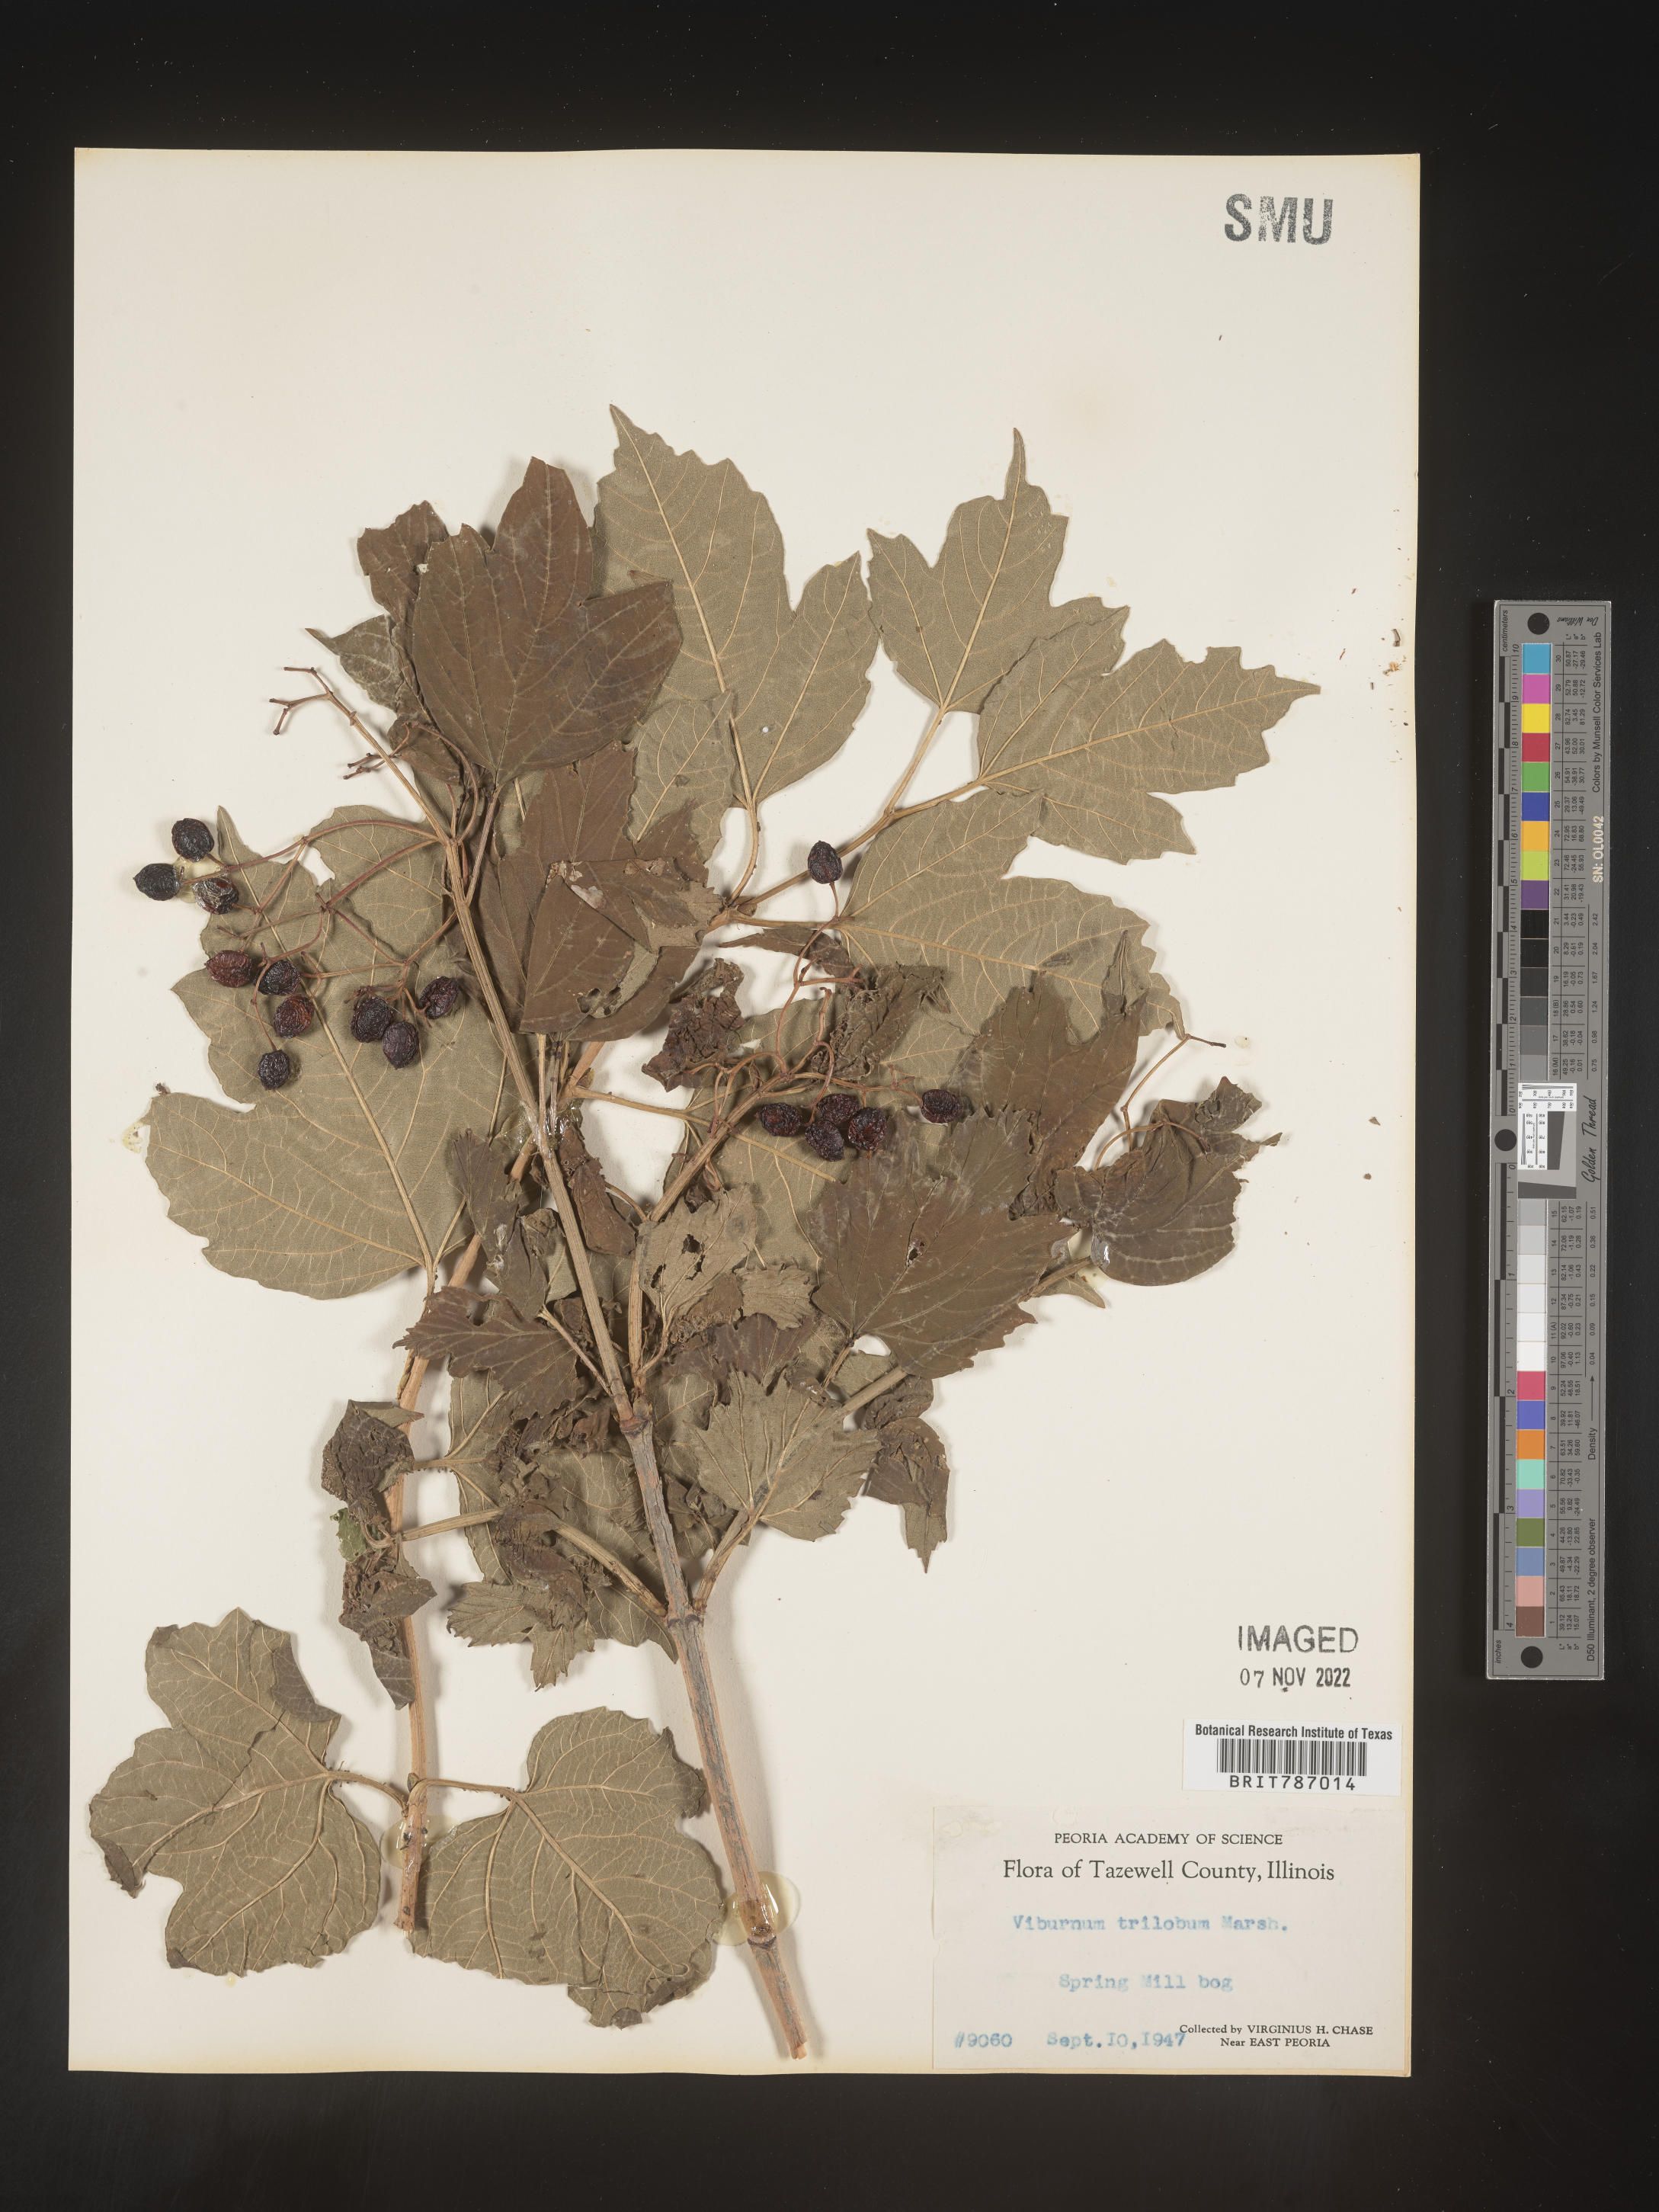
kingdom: Plantae
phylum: Tracheophyta
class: Magnoliopsida
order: Dipsacales
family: Viburnaceae
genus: Viburnum
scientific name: Viburnum opulus
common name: Guelder-rose
